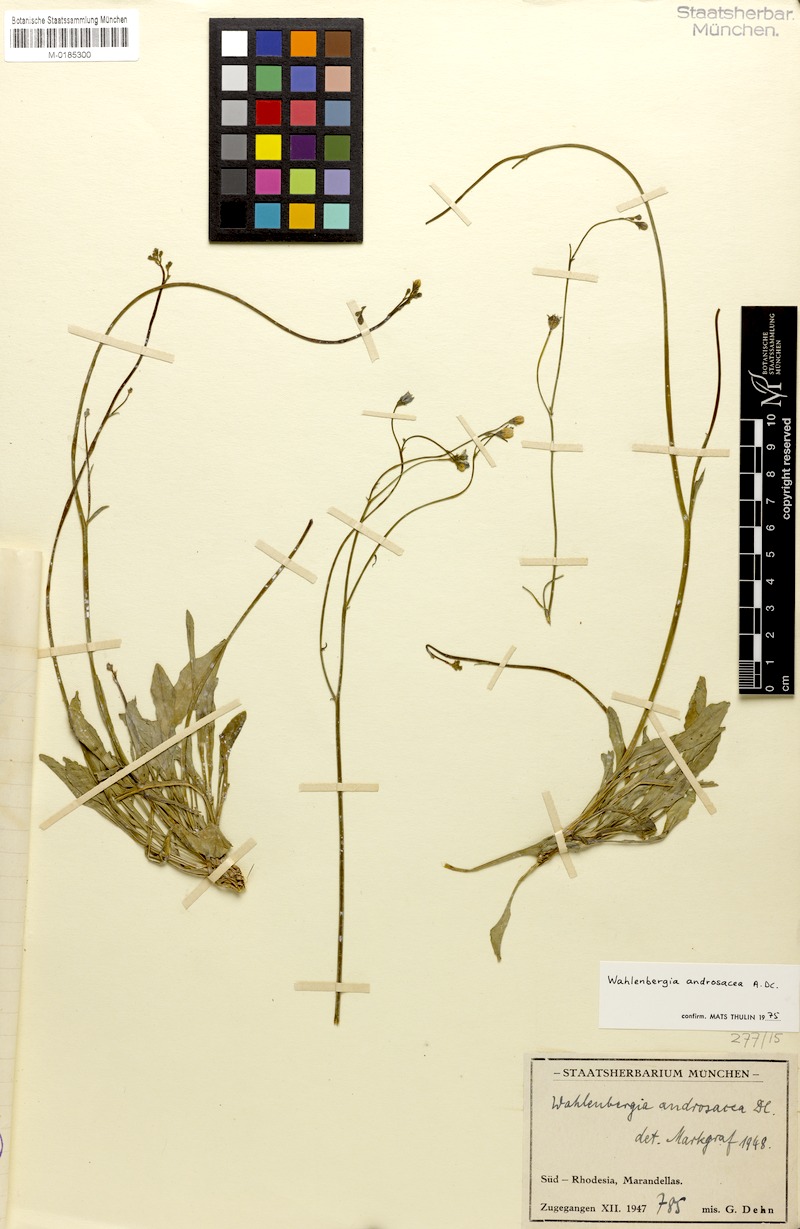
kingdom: Plantae
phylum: Tracheophyta
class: Magnoliopsida
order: Asterales
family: Campanulaceae
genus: Wahlenbergia
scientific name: Wahlenbergia androsacea
